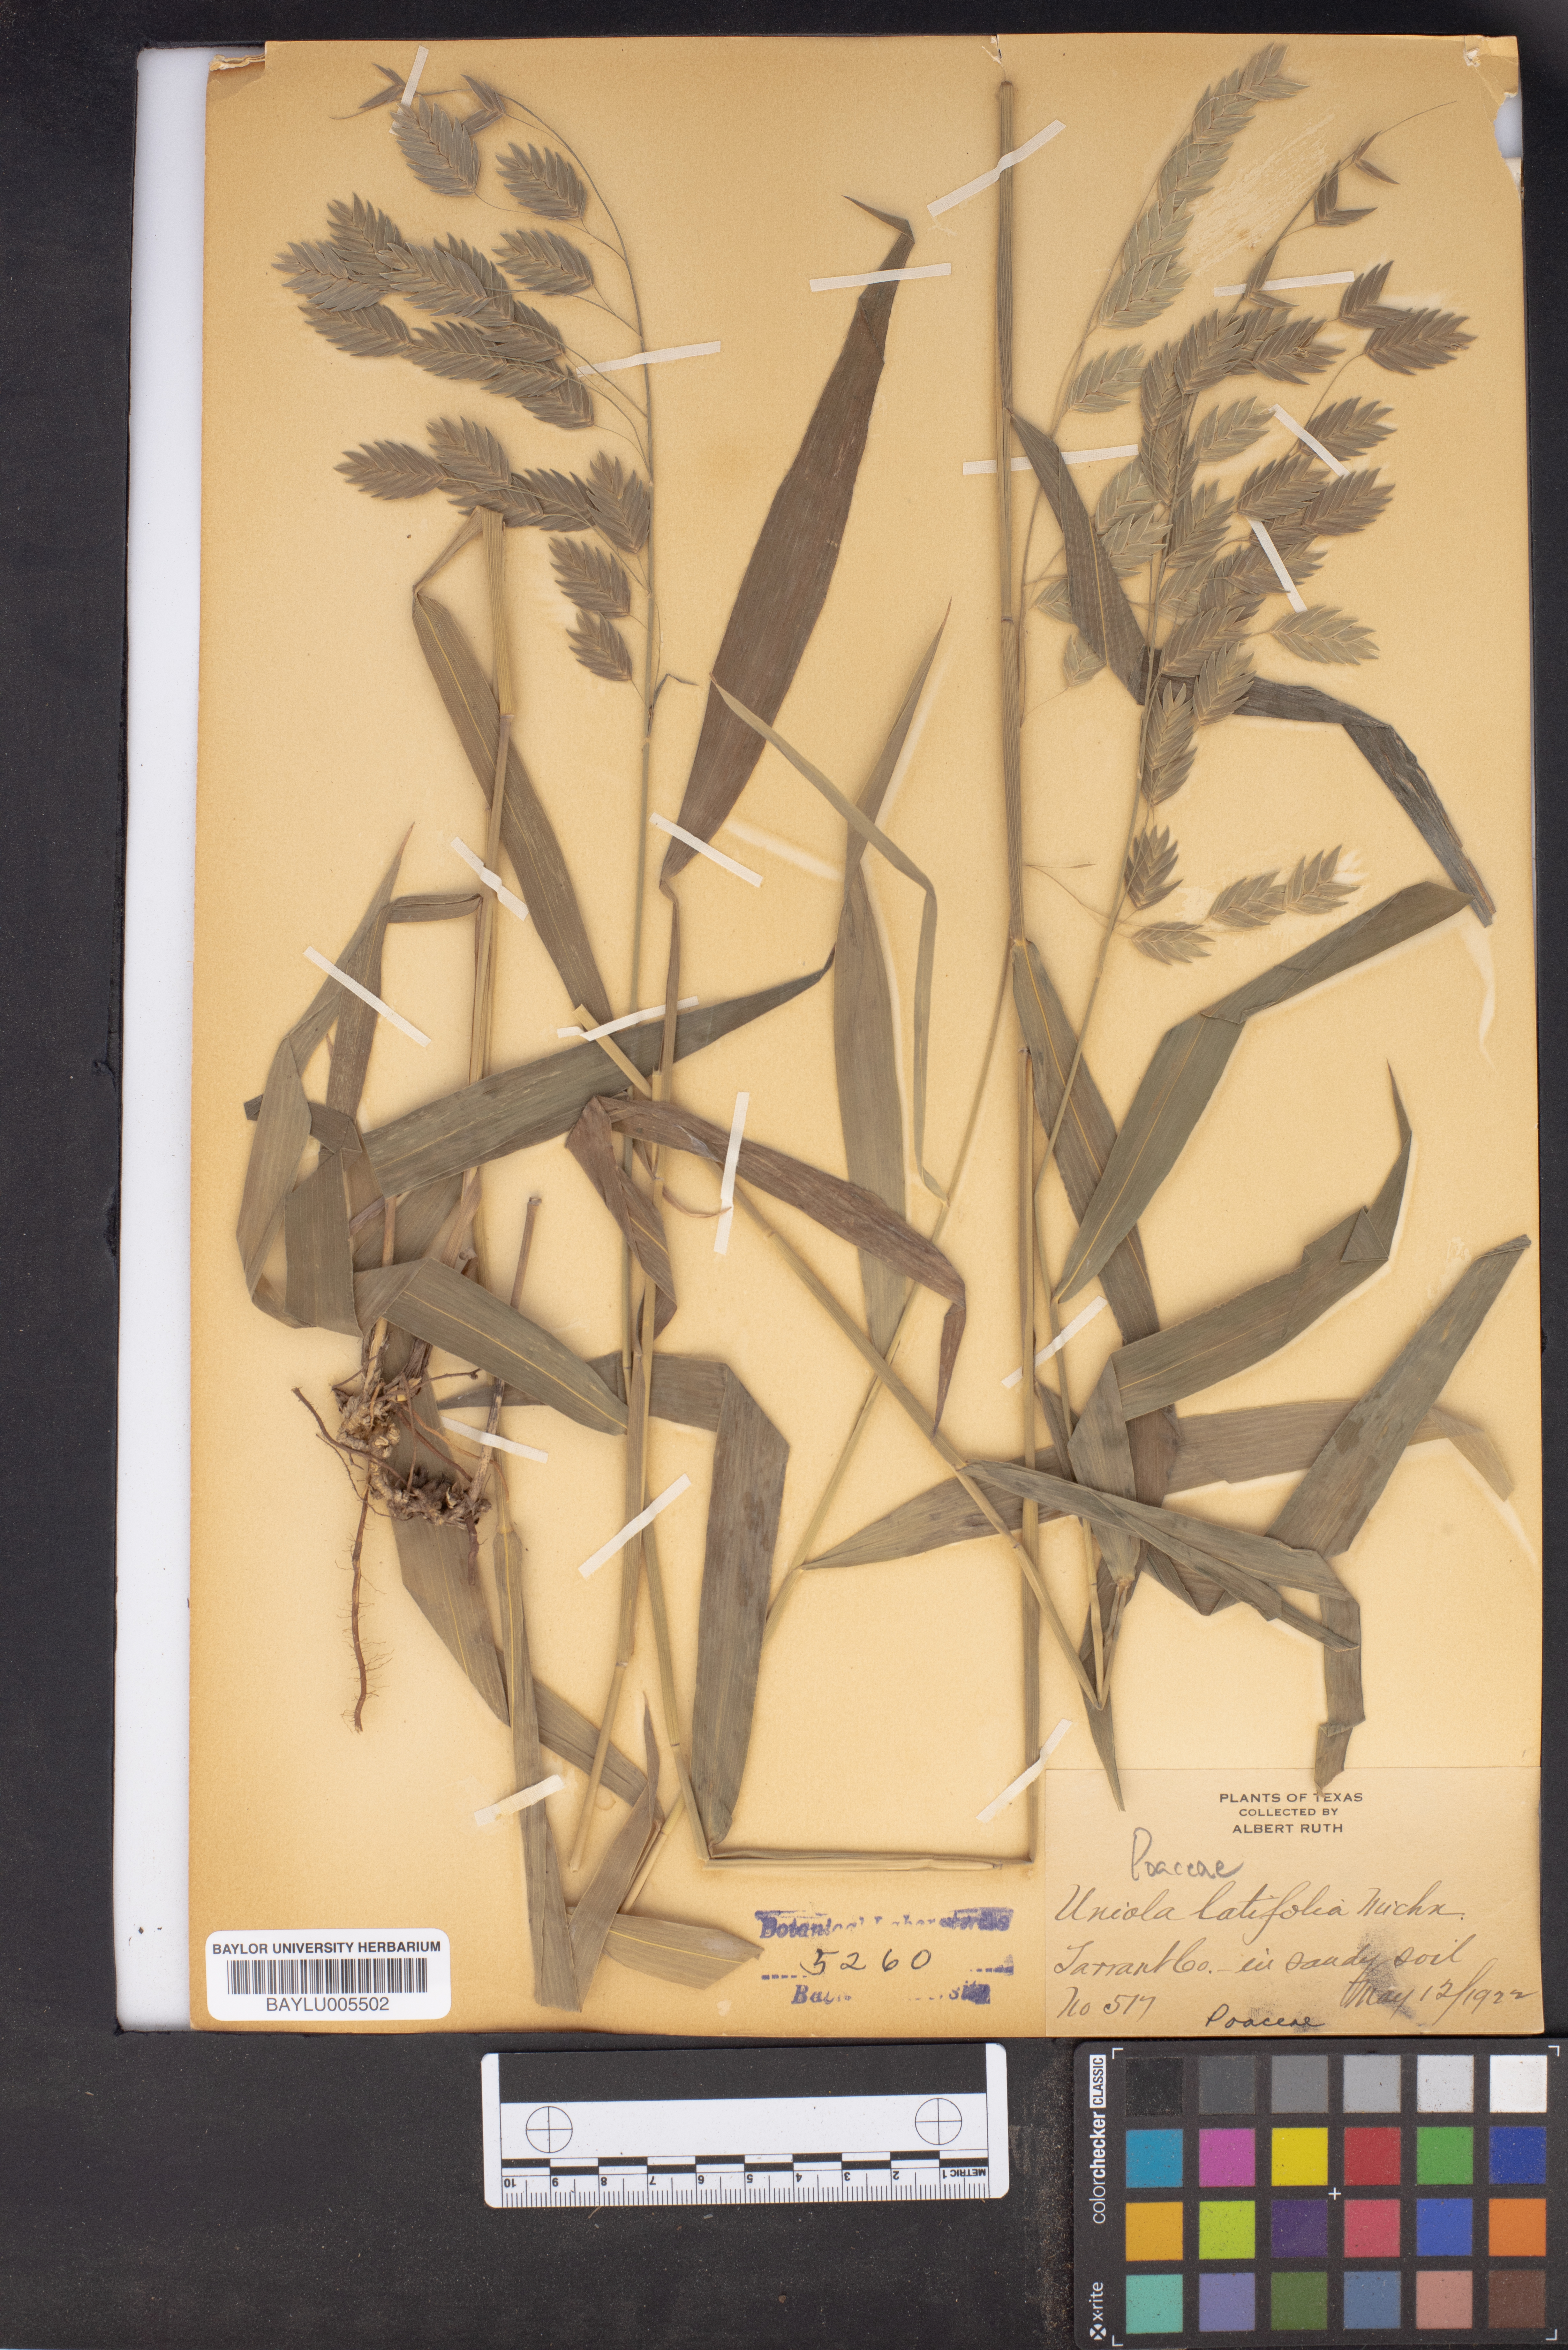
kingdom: Plantae
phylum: Tracheophyta
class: Liliopsida
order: Poales
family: Poaceae
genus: Chasmanthium
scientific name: Chasmanthium latifolium
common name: Broad-leaved chasmanthium
